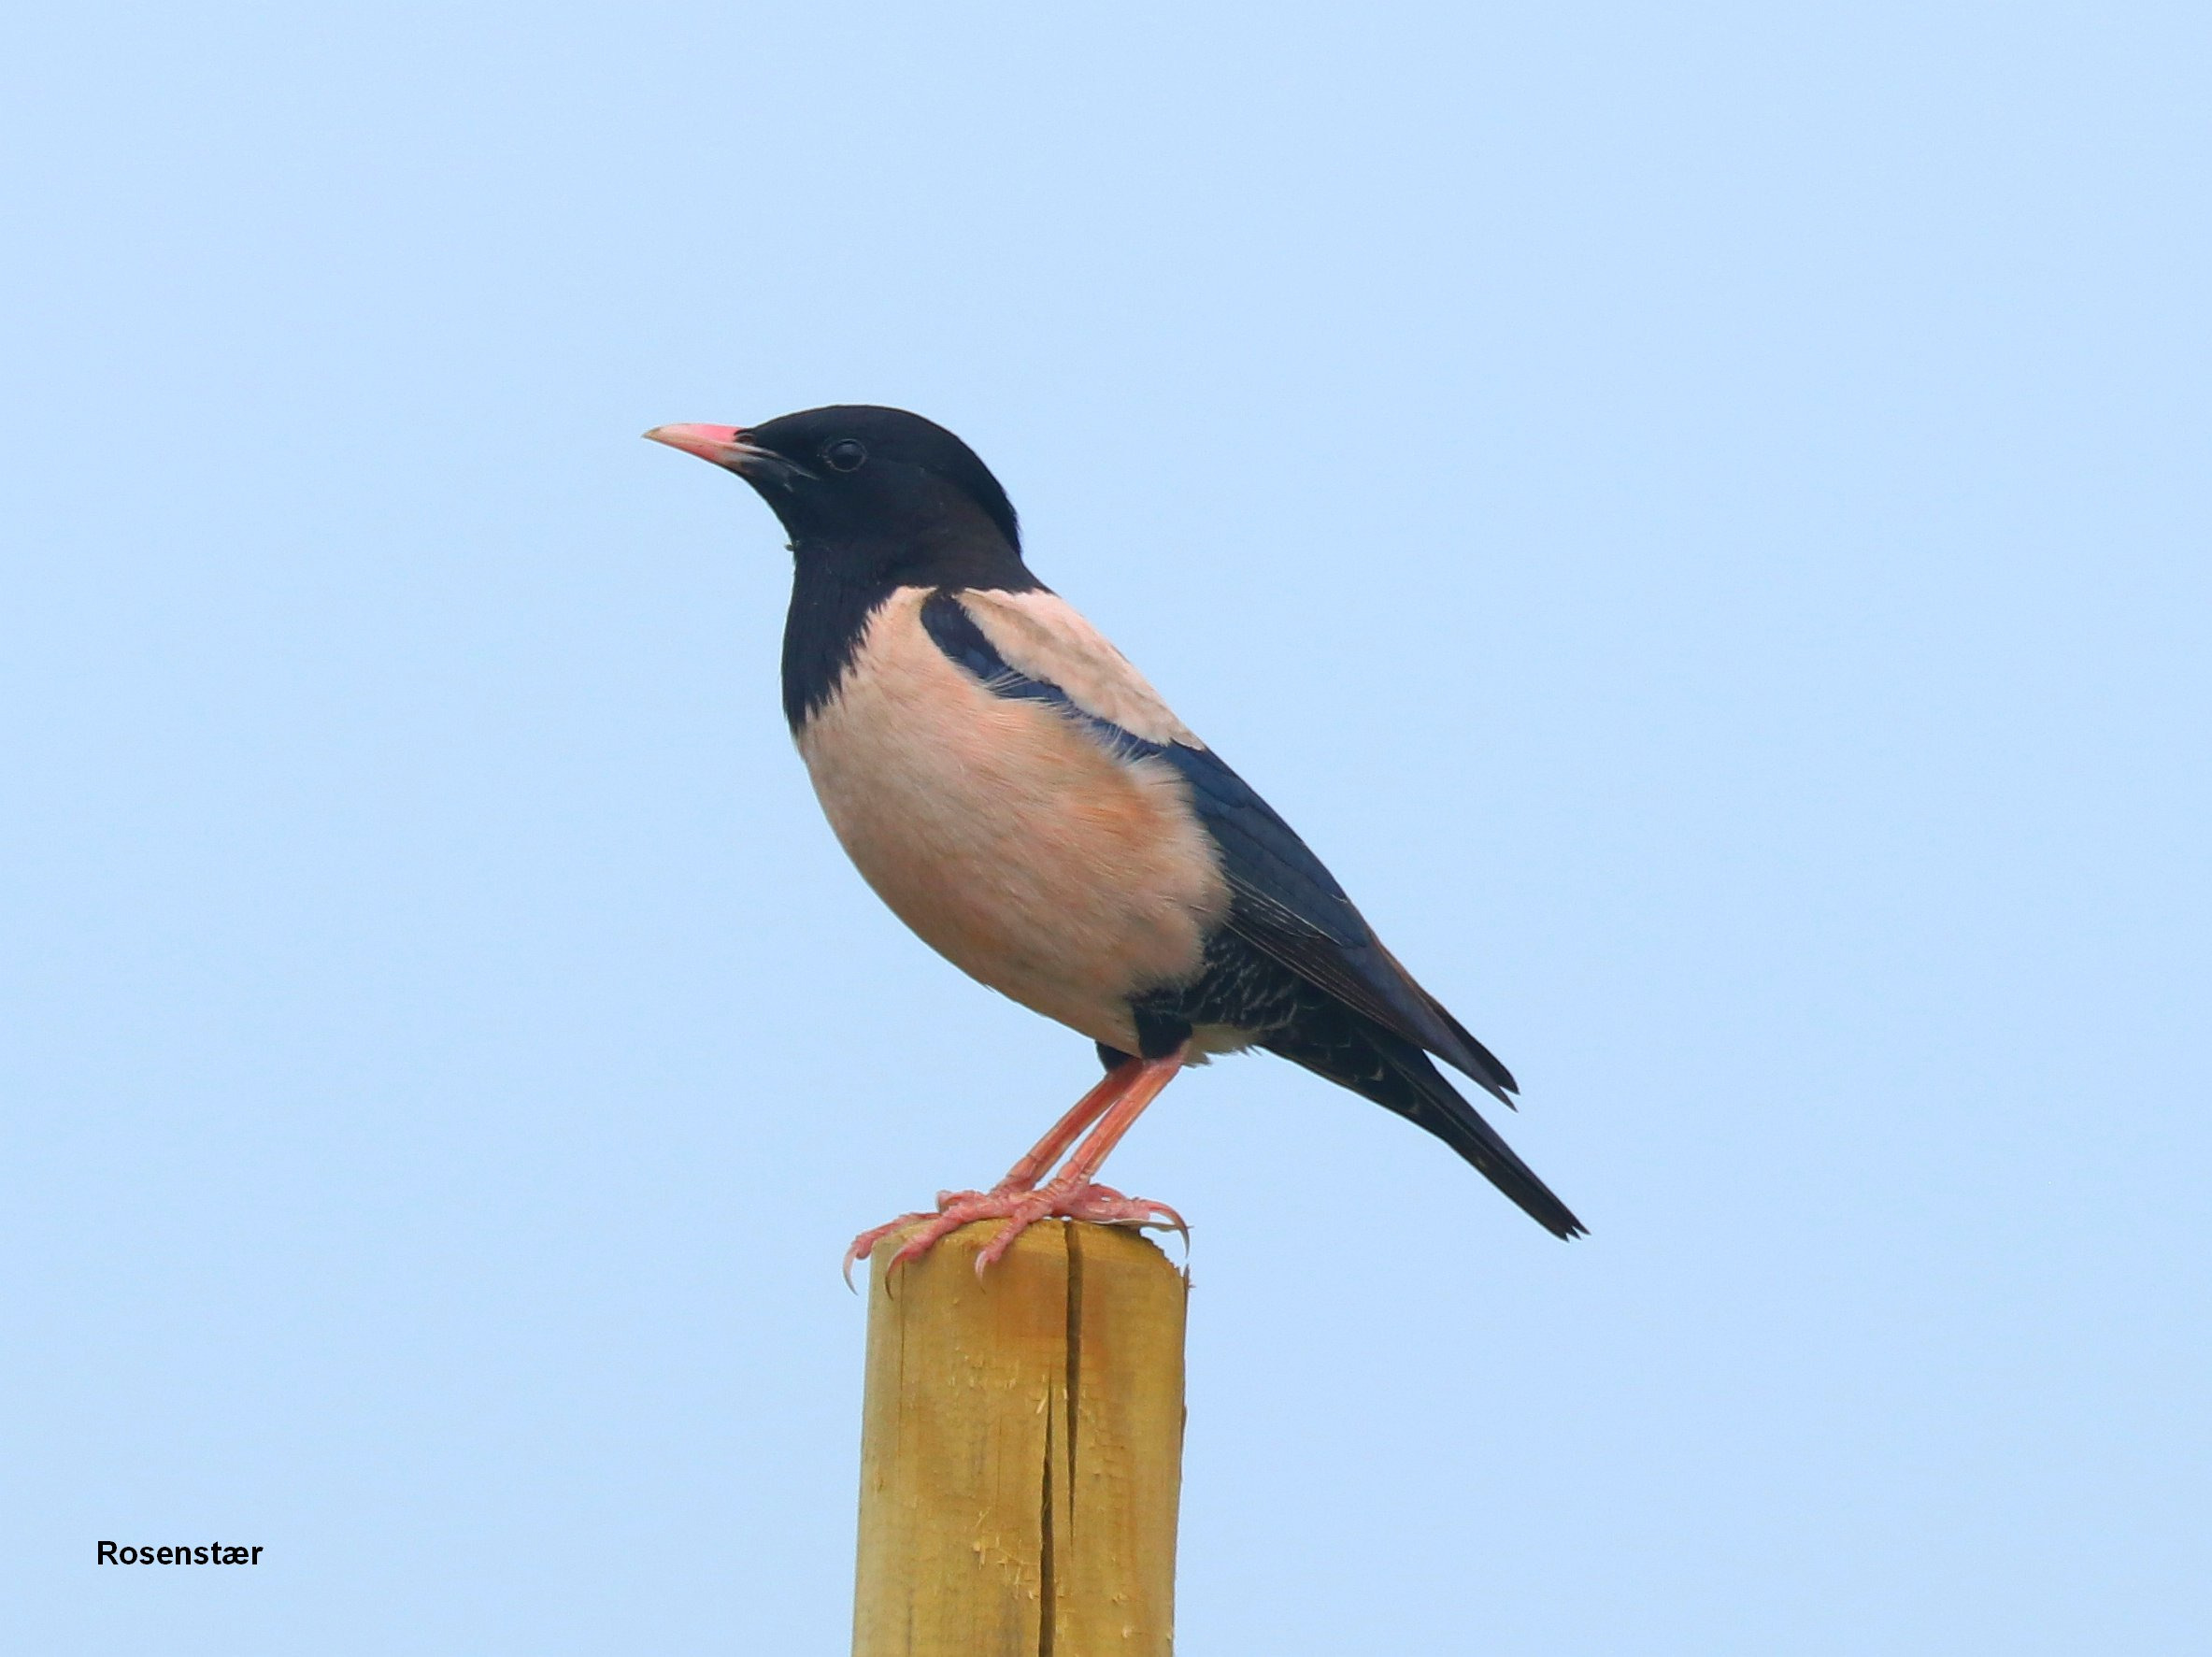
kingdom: Animalia
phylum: Chordata
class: Aves
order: Passeriformes
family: Sturnidae
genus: Pastor
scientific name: Pastor roseus
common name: Rosenstær
